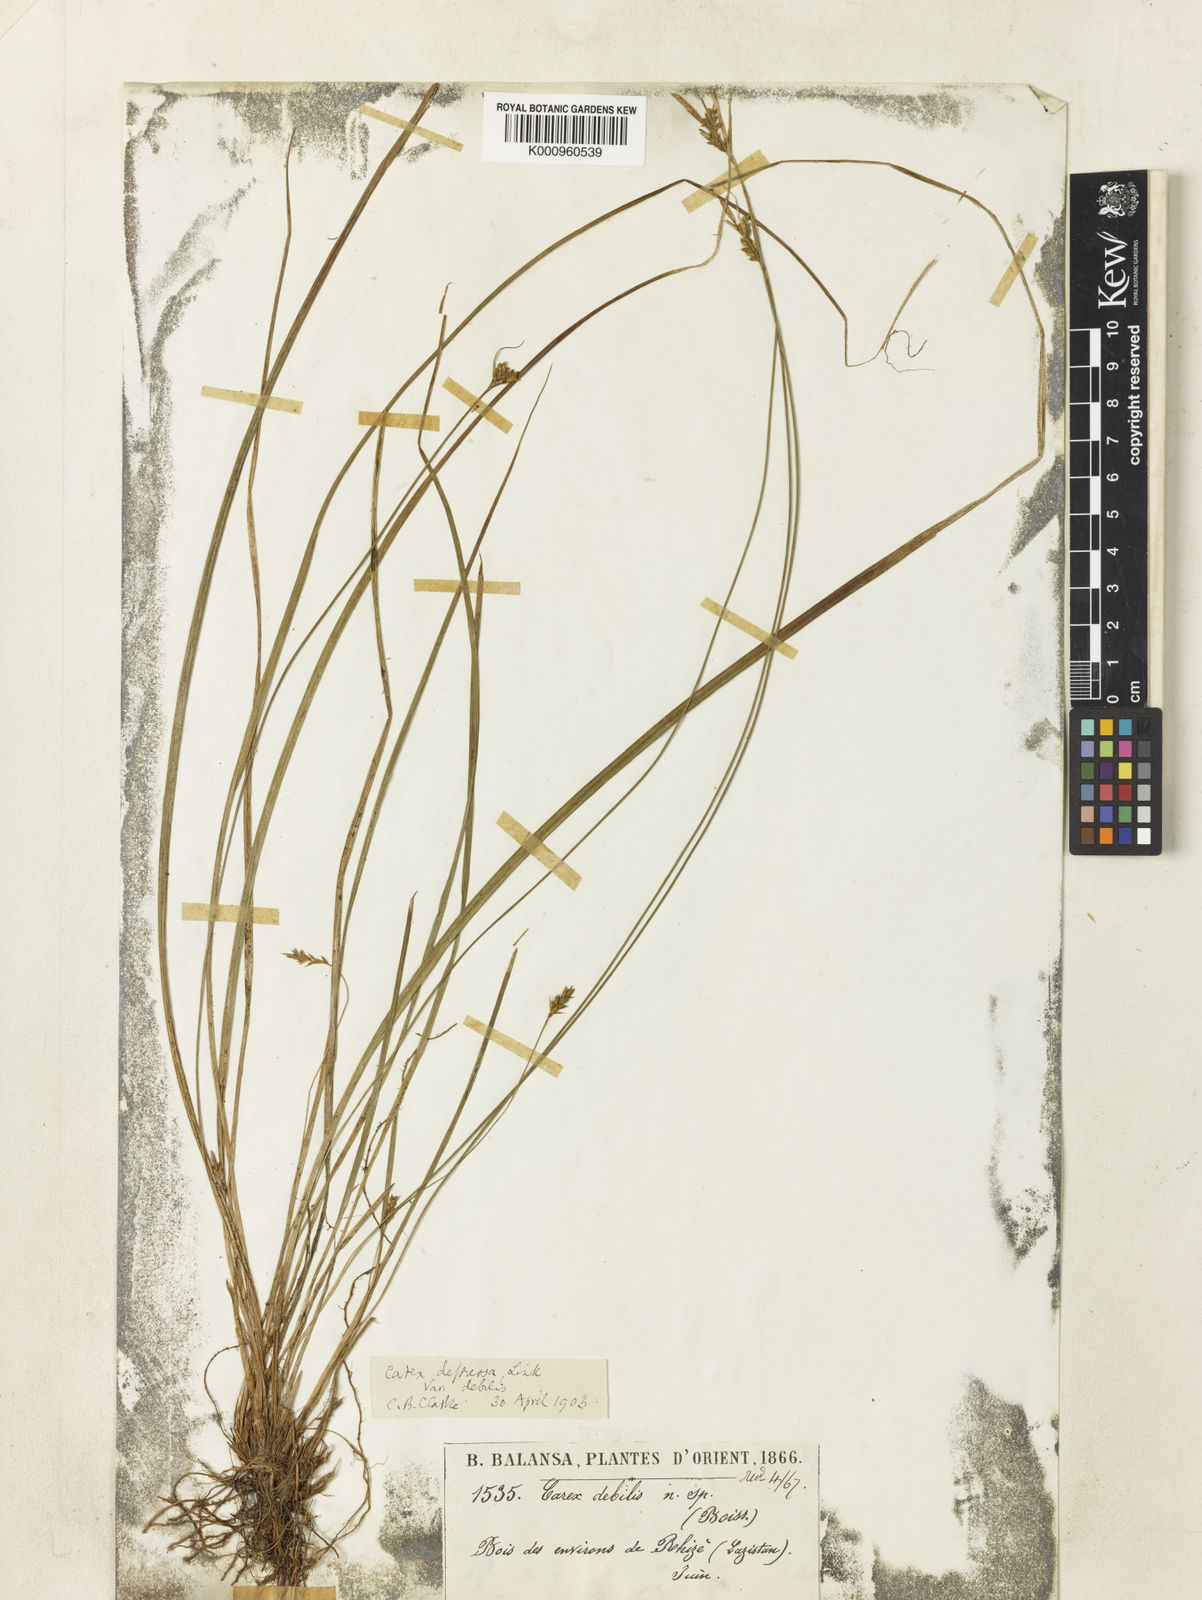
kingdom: Plantae
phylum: Tracheophyta
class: Liliopsida
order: Poales
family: Cyperaceae
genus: Carex
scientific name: Carex depressa
